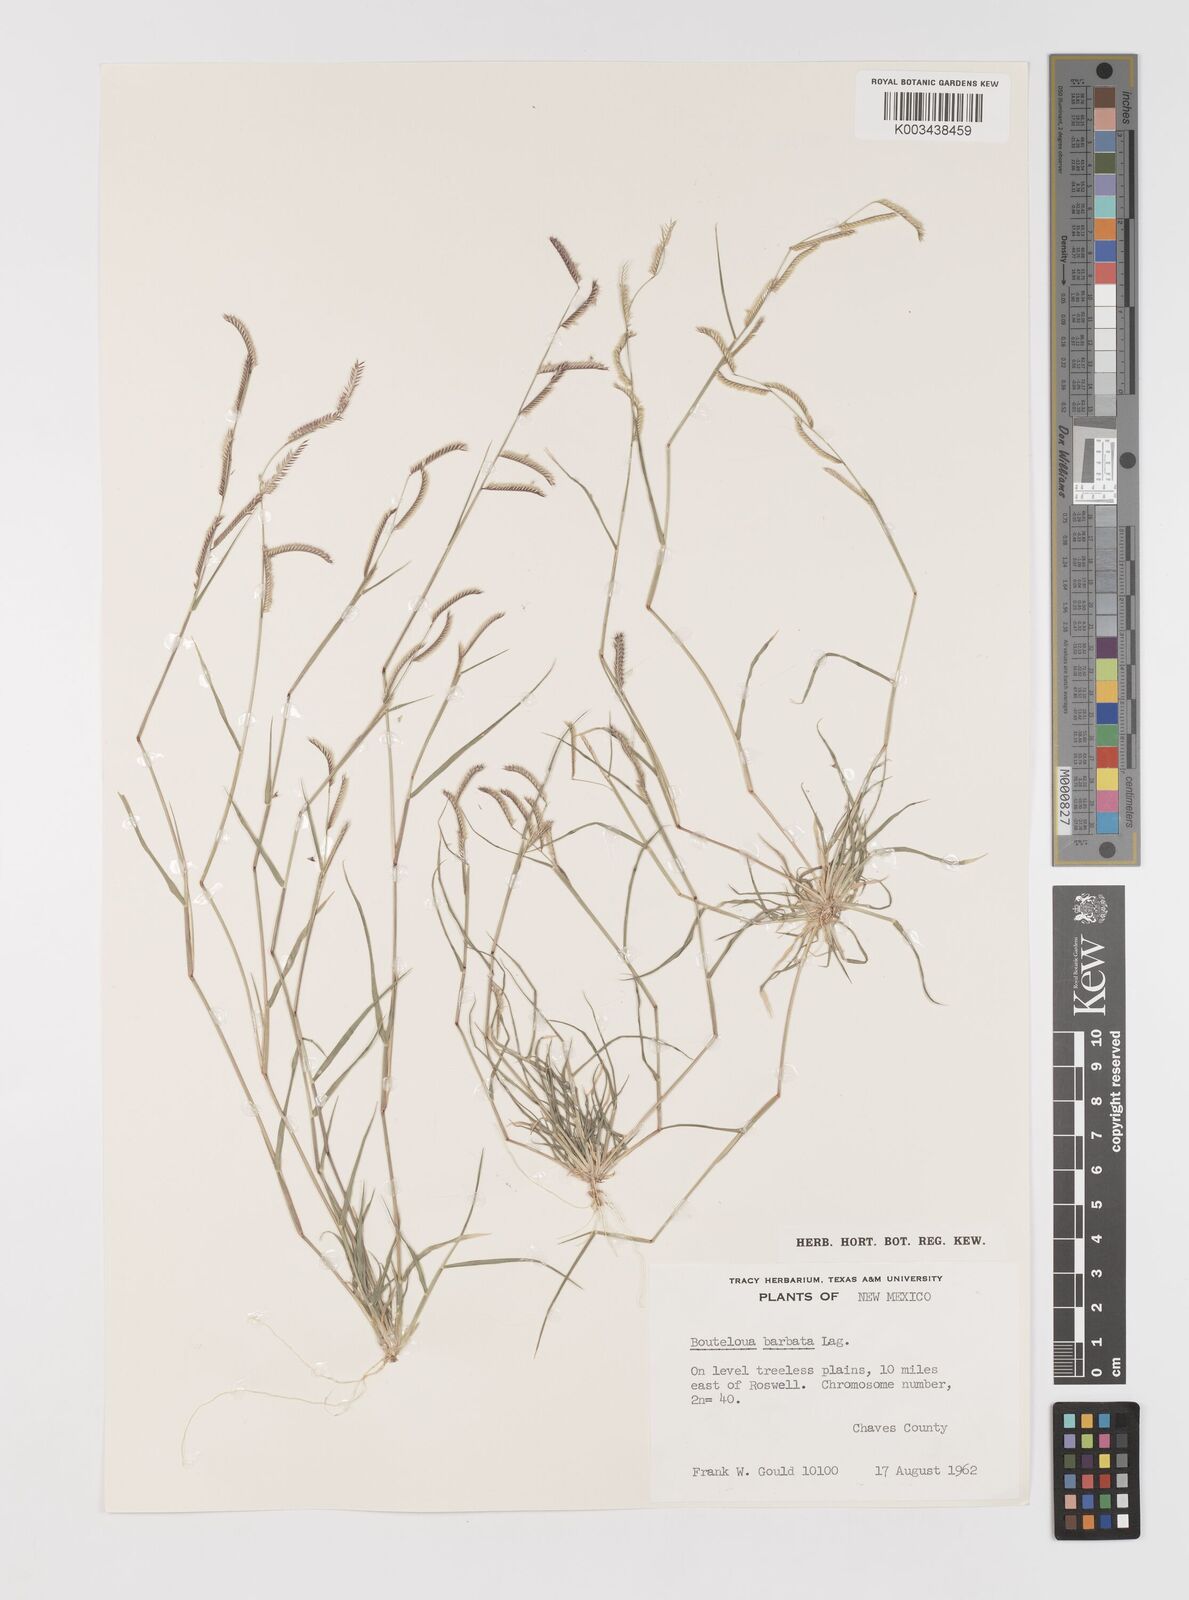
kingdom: Plantae
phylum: Tracheophyta
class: Liliopsida
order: Poales
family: Poaceae
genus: Bouteloua
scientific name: Bouteloua
